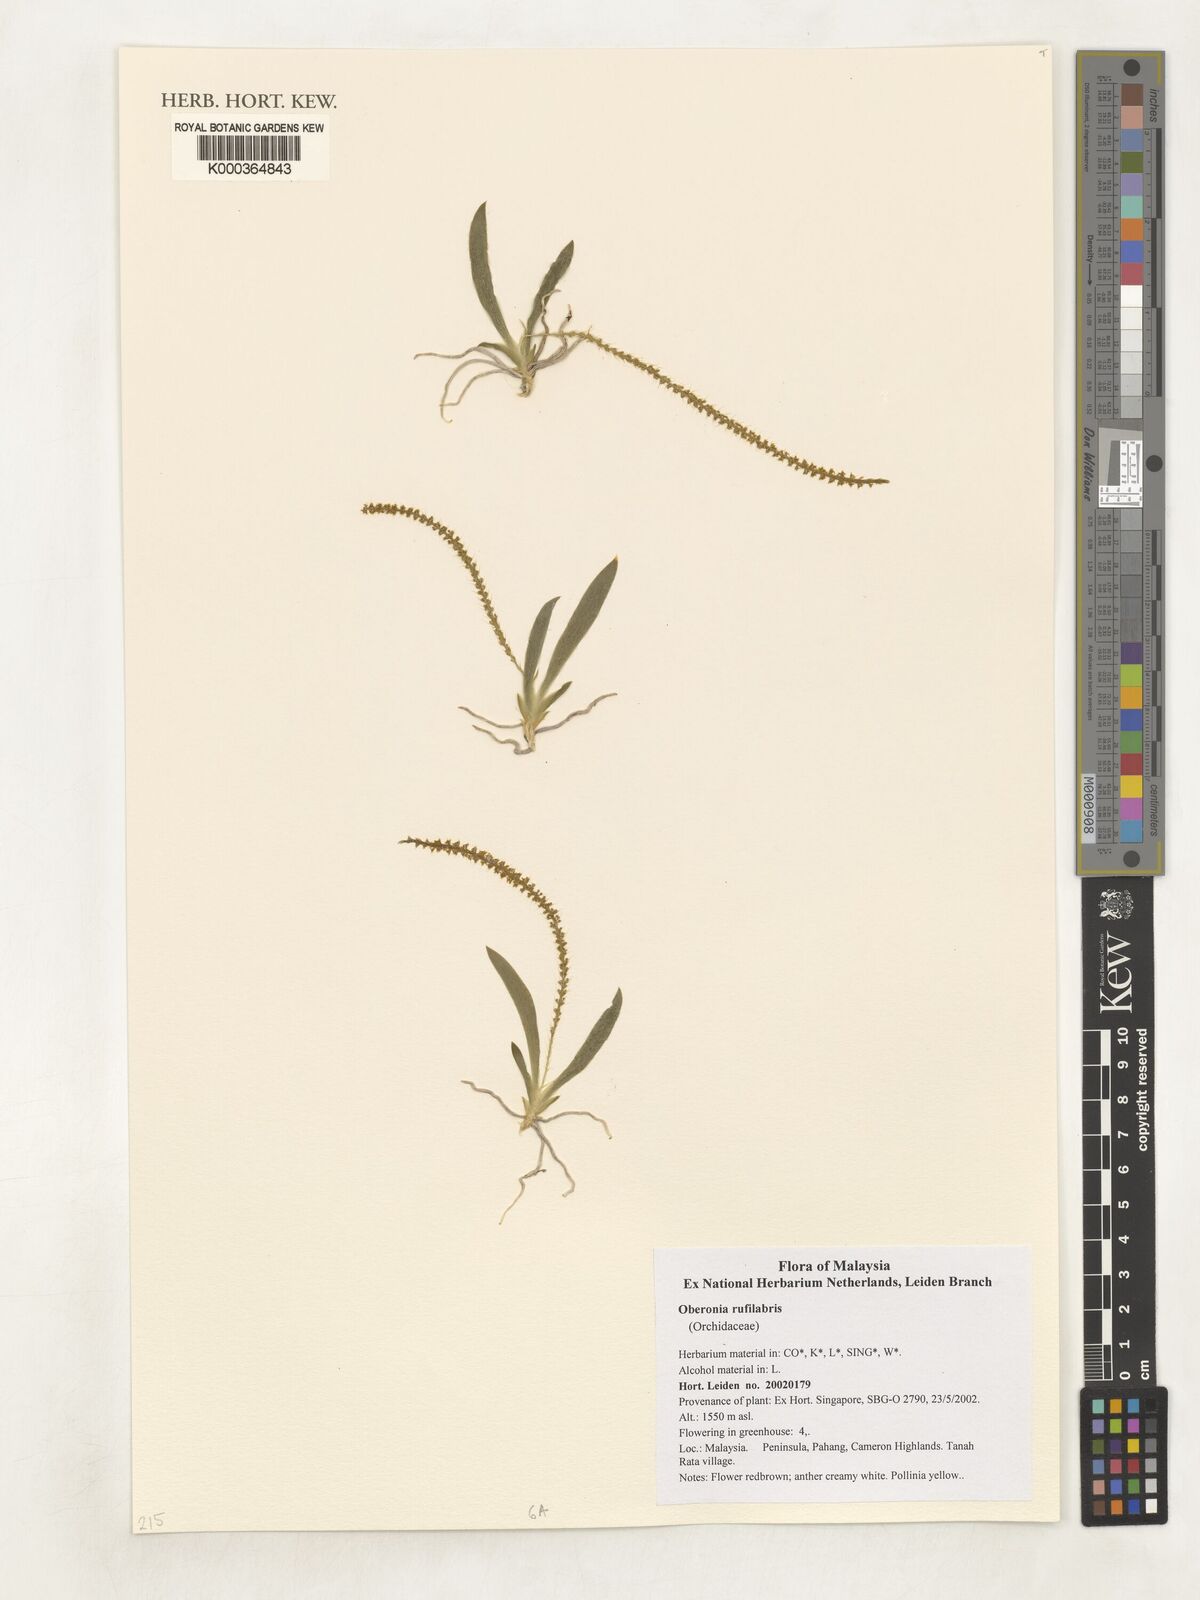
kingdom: Plantae
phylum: Tracheophyta
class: Liliopsida
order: Asparagales
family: Orchidaceae
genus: Oberonia
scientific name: Oberonia rufilabris
